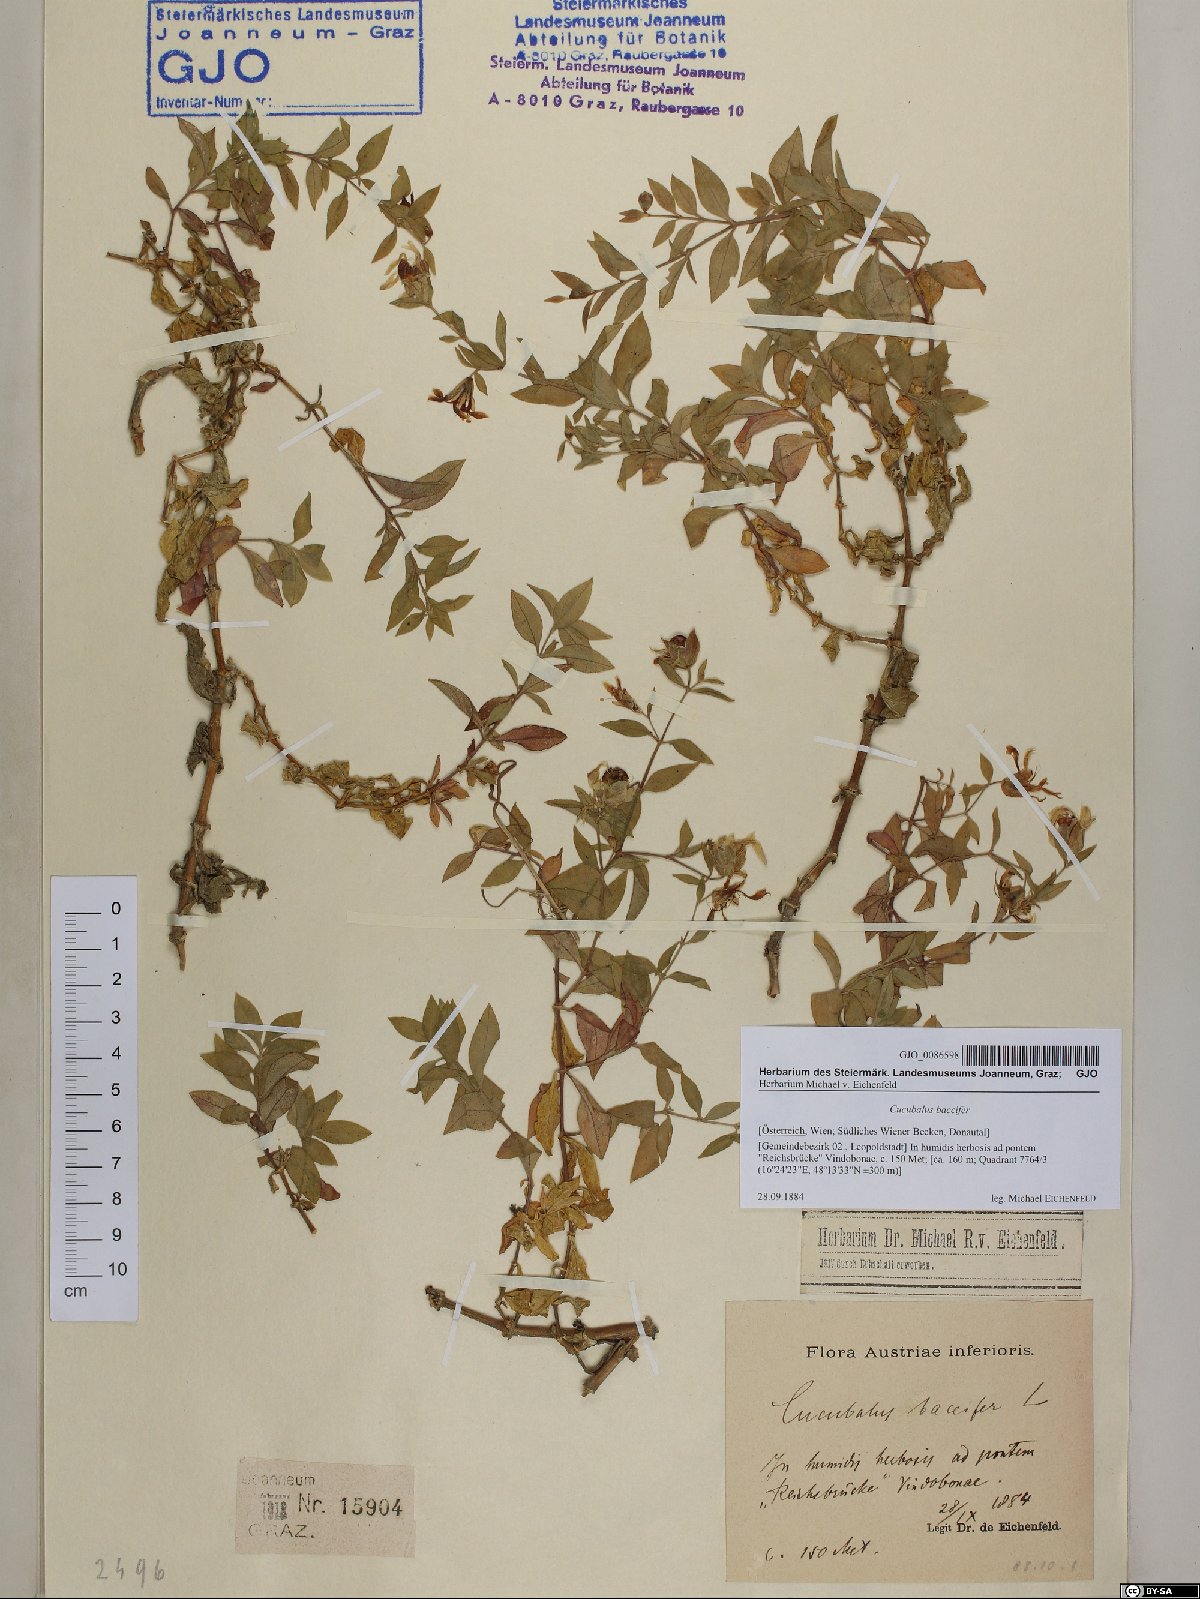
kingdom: Plantae
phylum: Tracheophyta
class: Magnoliopsida
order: Caryophyllales
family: Caryophyllaceae
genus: Silene
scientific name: Silene baccifera
